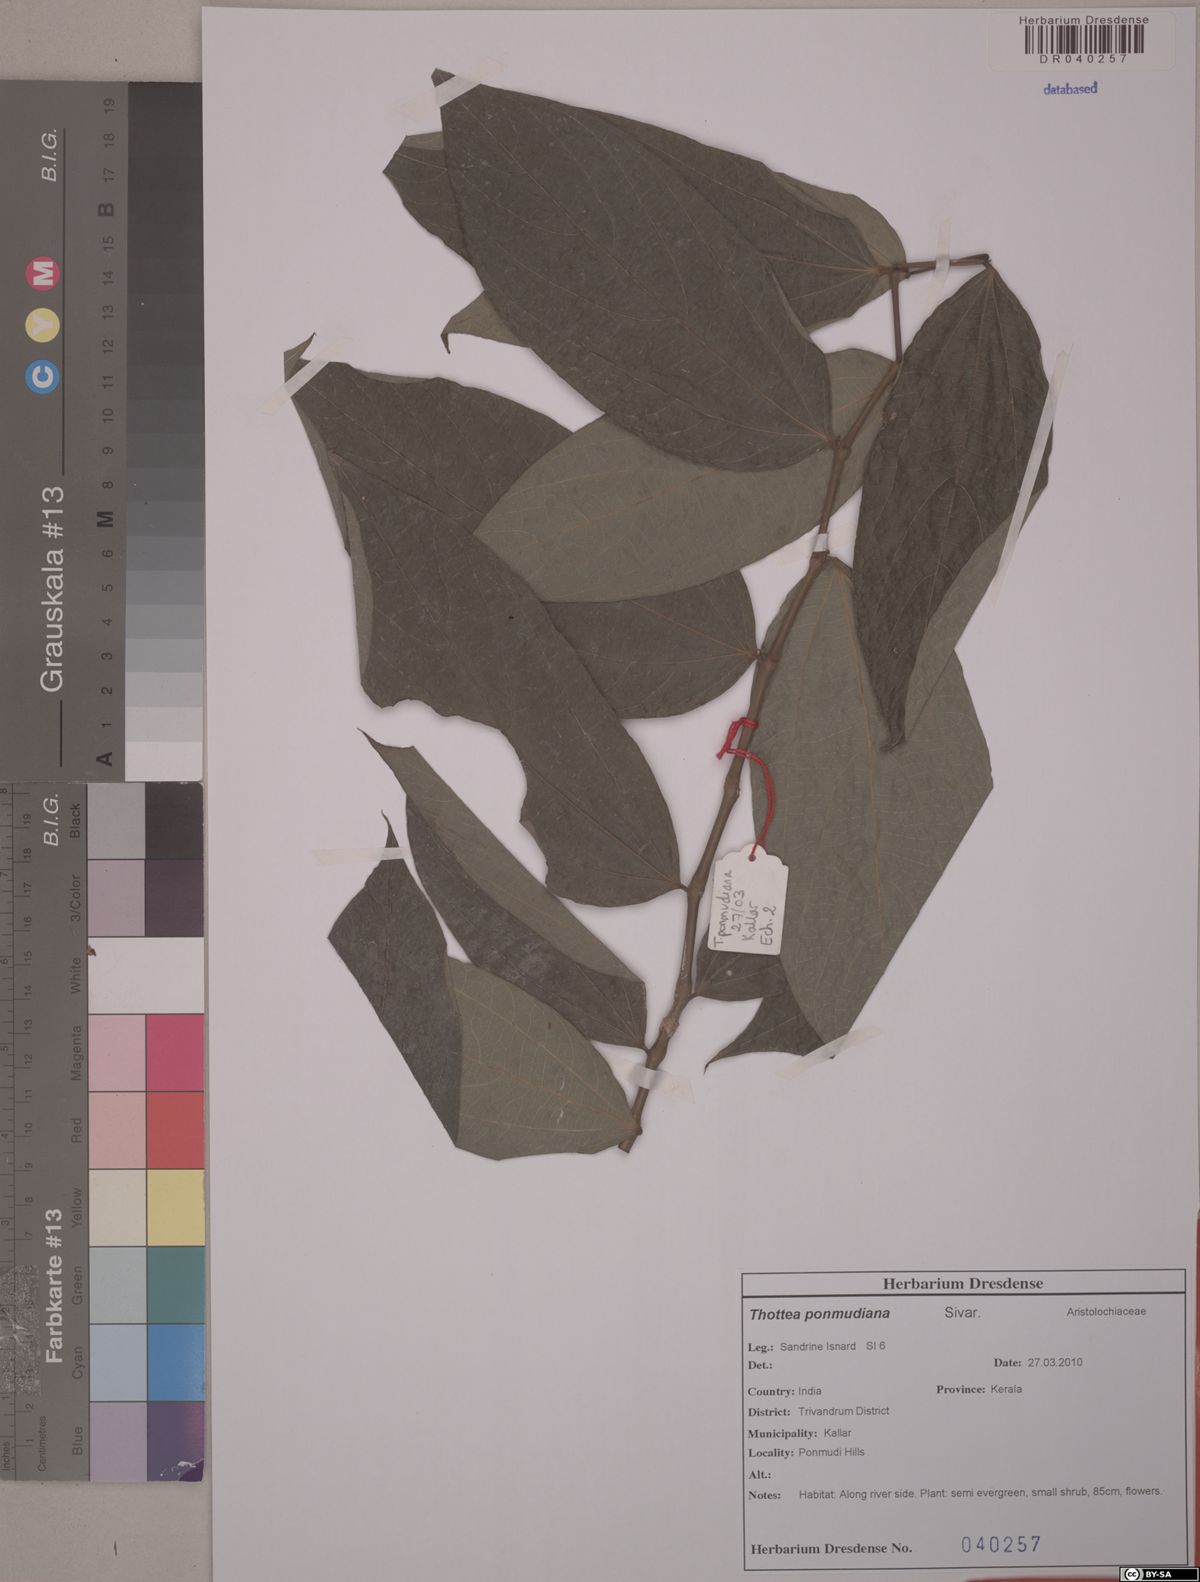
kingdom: Plantae
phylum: Tracheophyta
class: Magnoliopsida
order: Piperales
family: Aristolochiaceae
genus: Thottea
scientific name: Thottea ponmudiana
